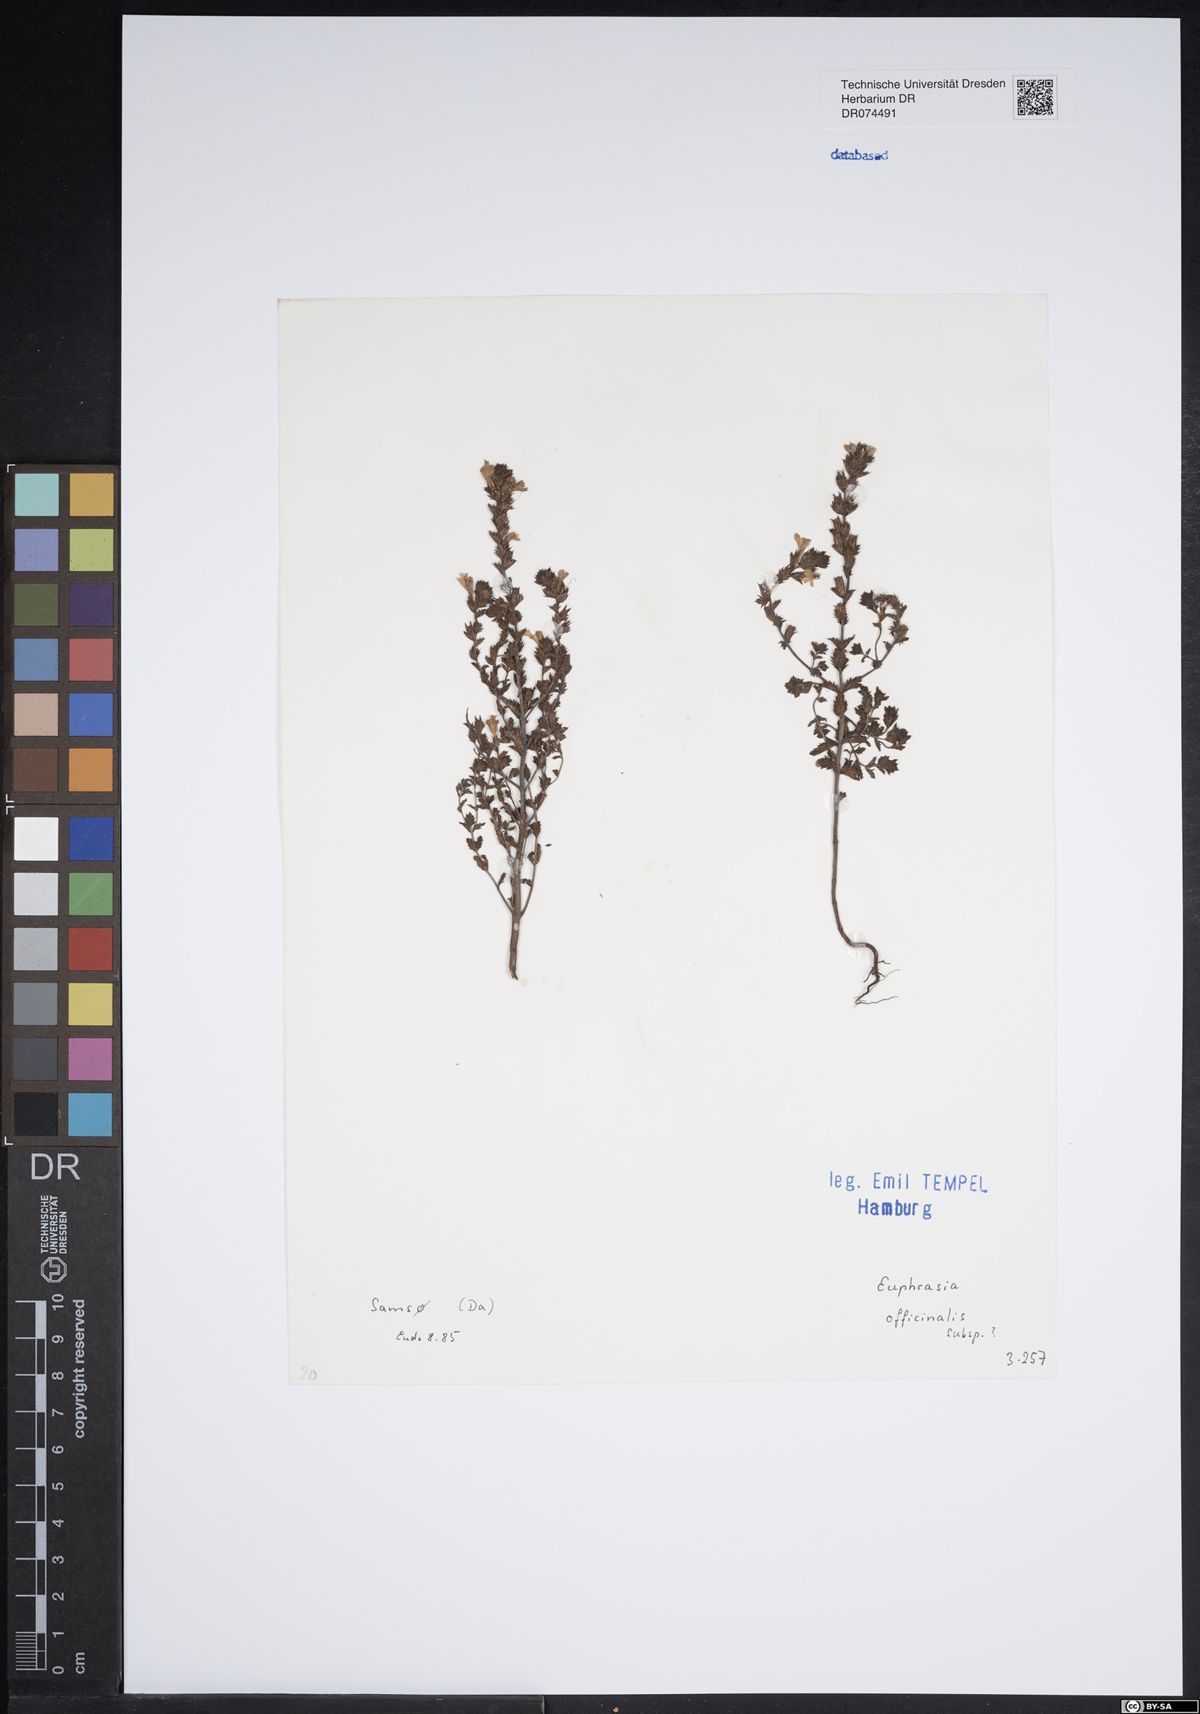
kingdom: Plantae
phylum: Tracheophyta
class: Magnoliopsida
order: Lamiales
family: Orobanchaceae
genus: Euphrasia
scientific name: Euphrasia officinalis
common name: Eyebright
